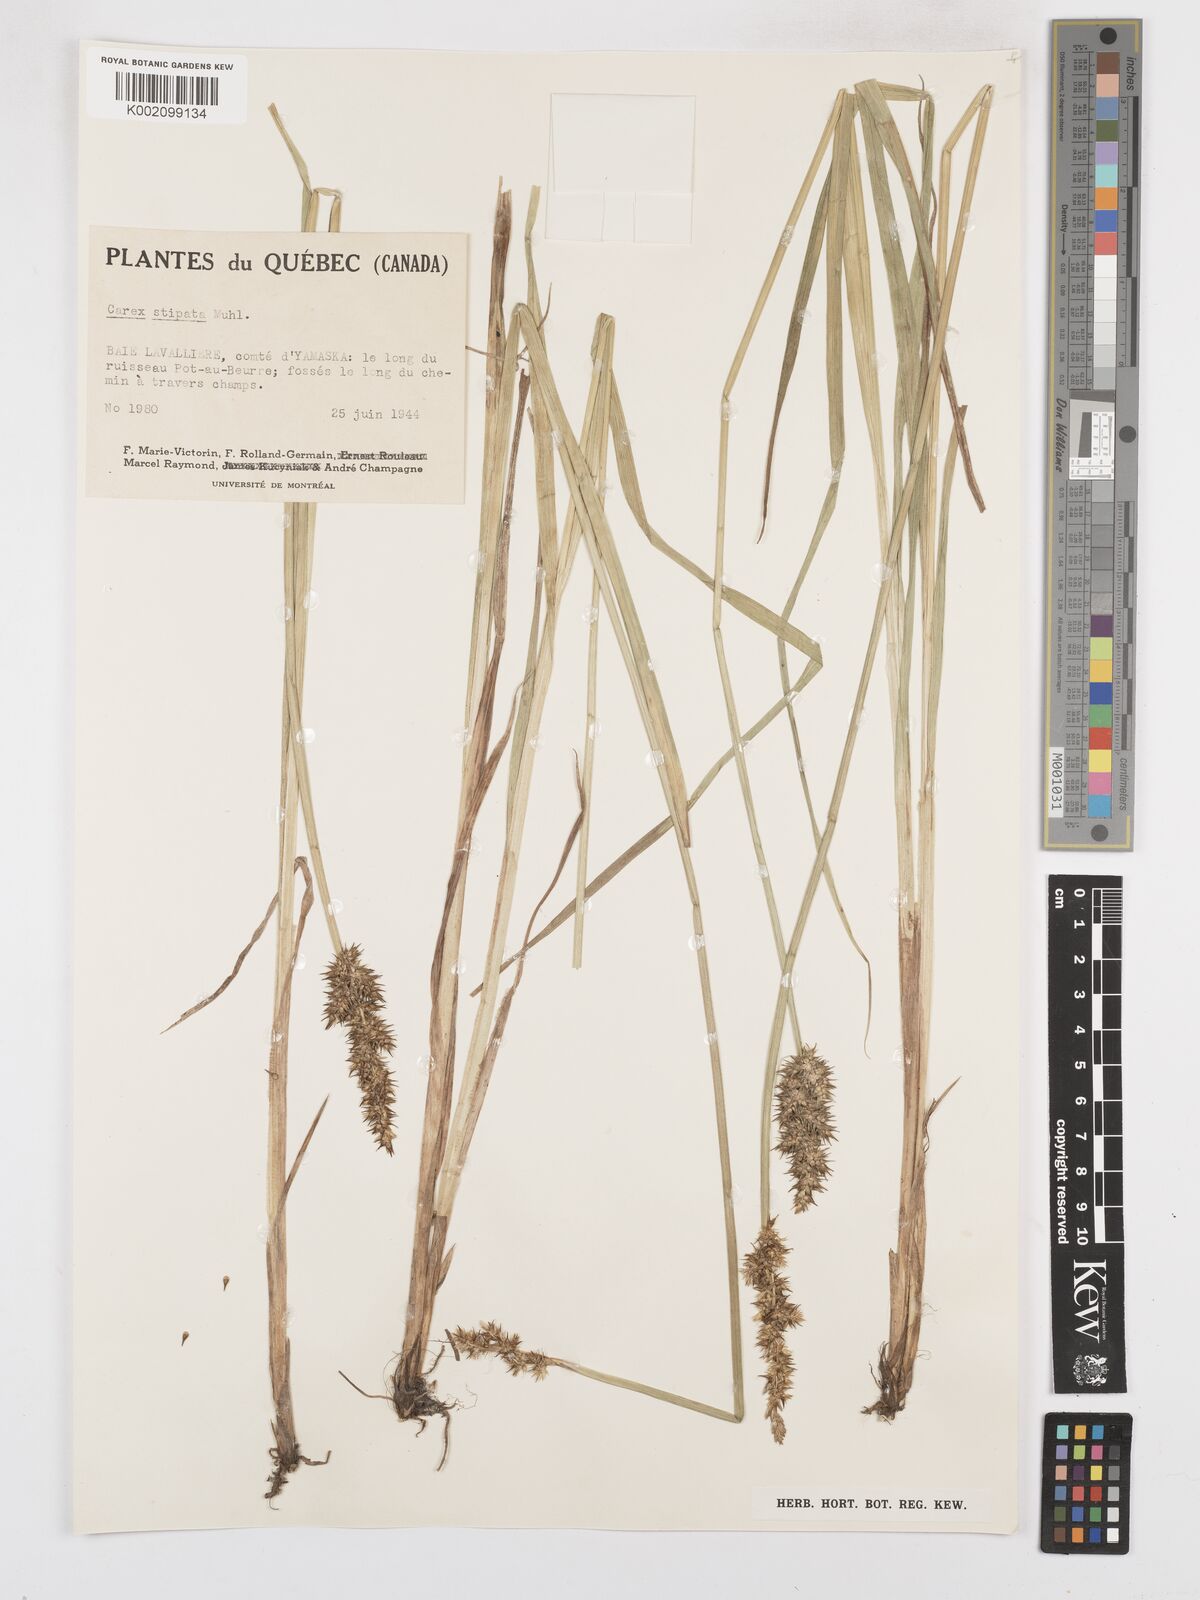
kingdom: Plantae
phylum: Tracheophyta
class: Liliopsida
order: Poales
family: Cyperaceae
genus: Carex
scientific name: Carex stipata
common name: Awl-fruited sedge
